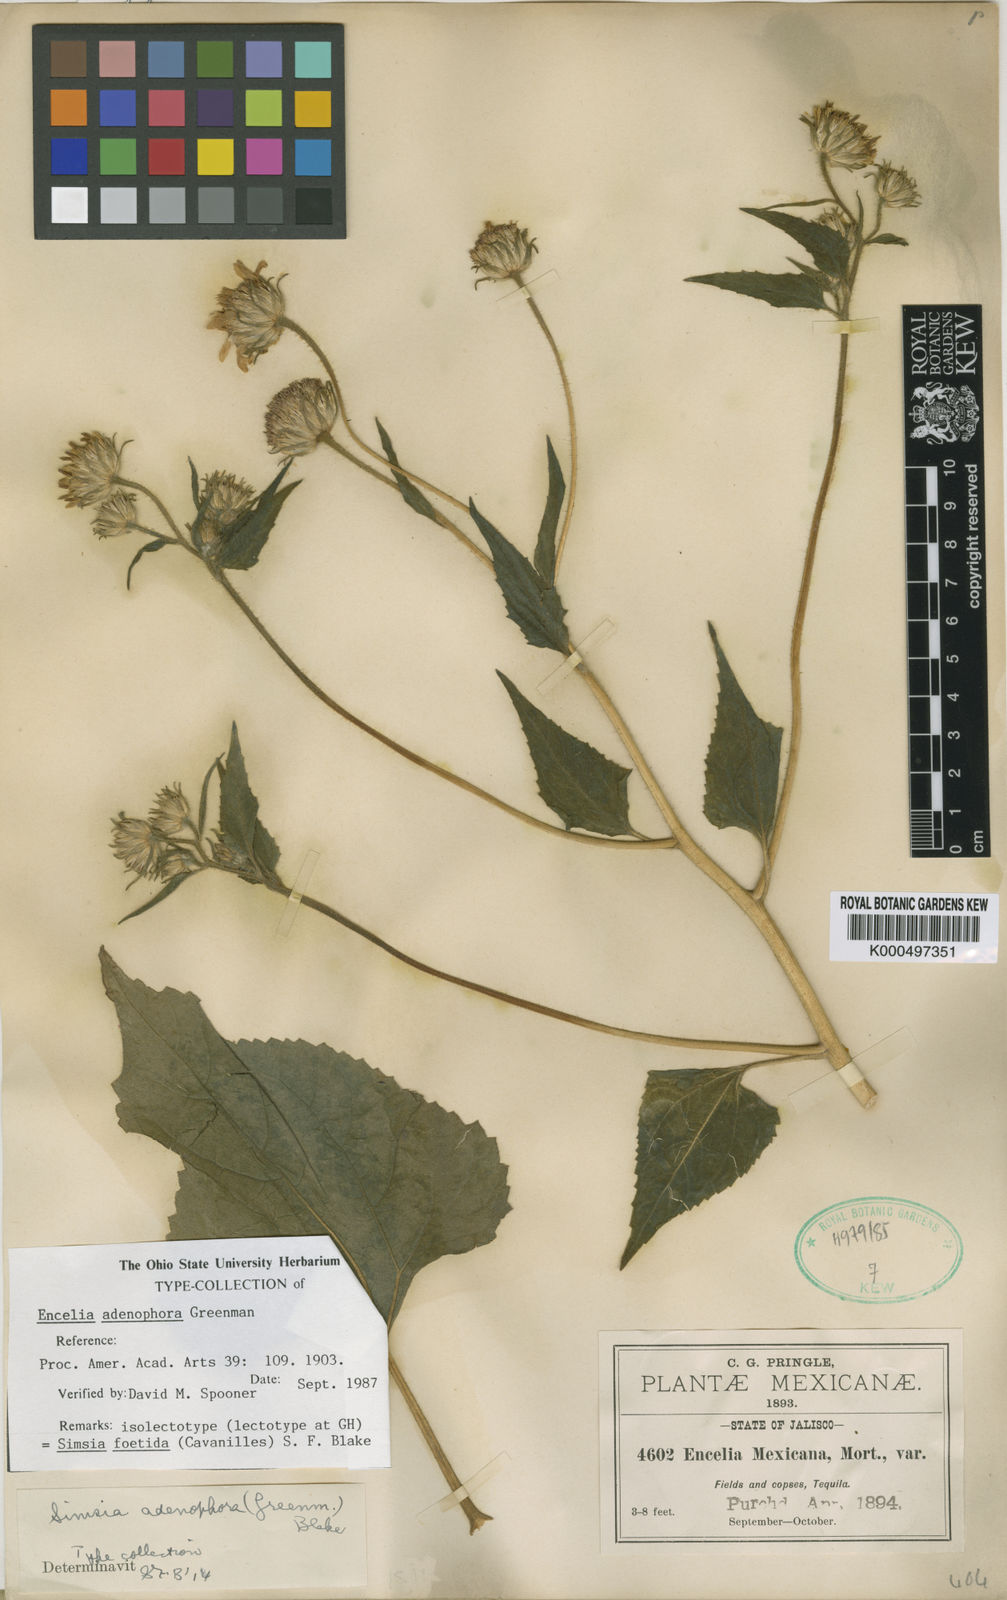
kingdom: Plantae
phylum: Tracheophyta
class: Magnoliopsida
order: Asterales
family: Asteraceae
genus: Simsia
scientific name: Simsia foetida
